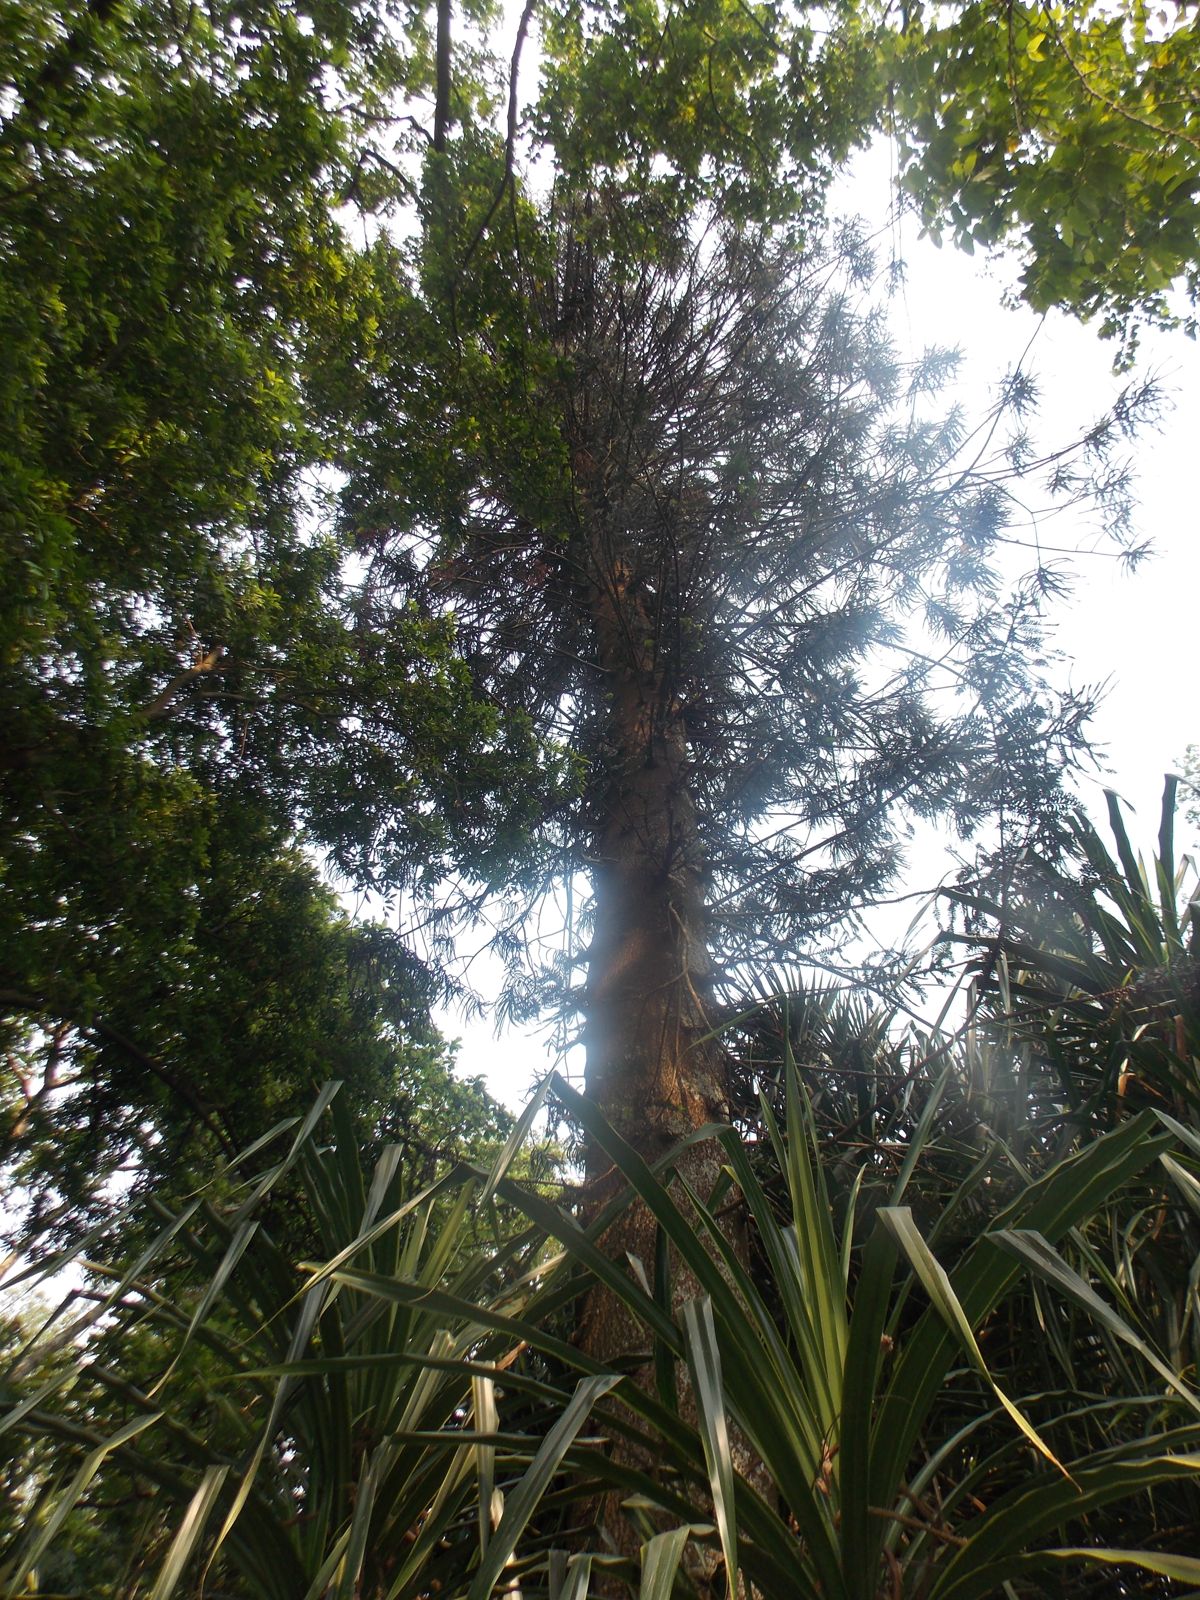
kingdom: Plantae
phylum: Tracheophyta
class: Pinopsida
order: Pinales
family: Araucariaceae
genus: Araucaria
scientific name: Araucaria bidwillii
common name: Moreton-bay-pine
